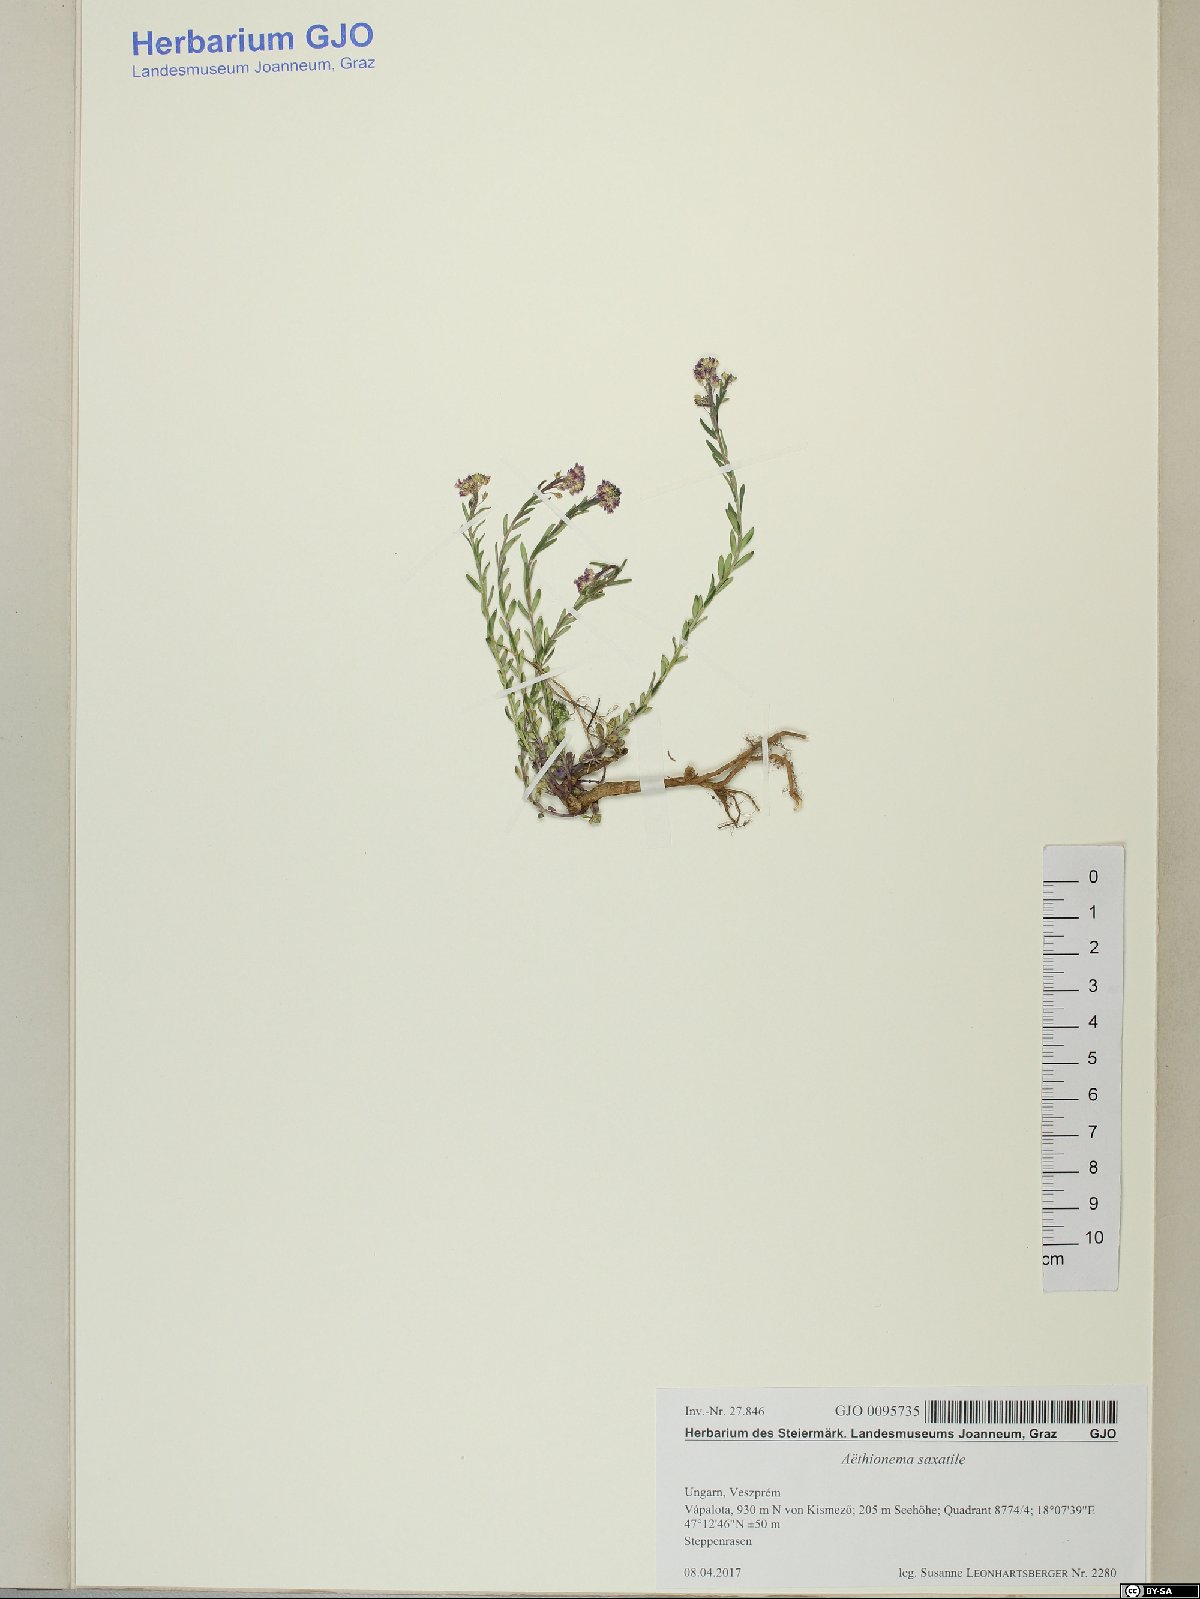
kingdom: Plantae
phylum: Tracheophyta
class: Magnoliopsida
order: Brassicales
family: Brassicaceae
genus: Aethionema
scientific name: Aethionema saxatile
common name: Burnt candytuft
